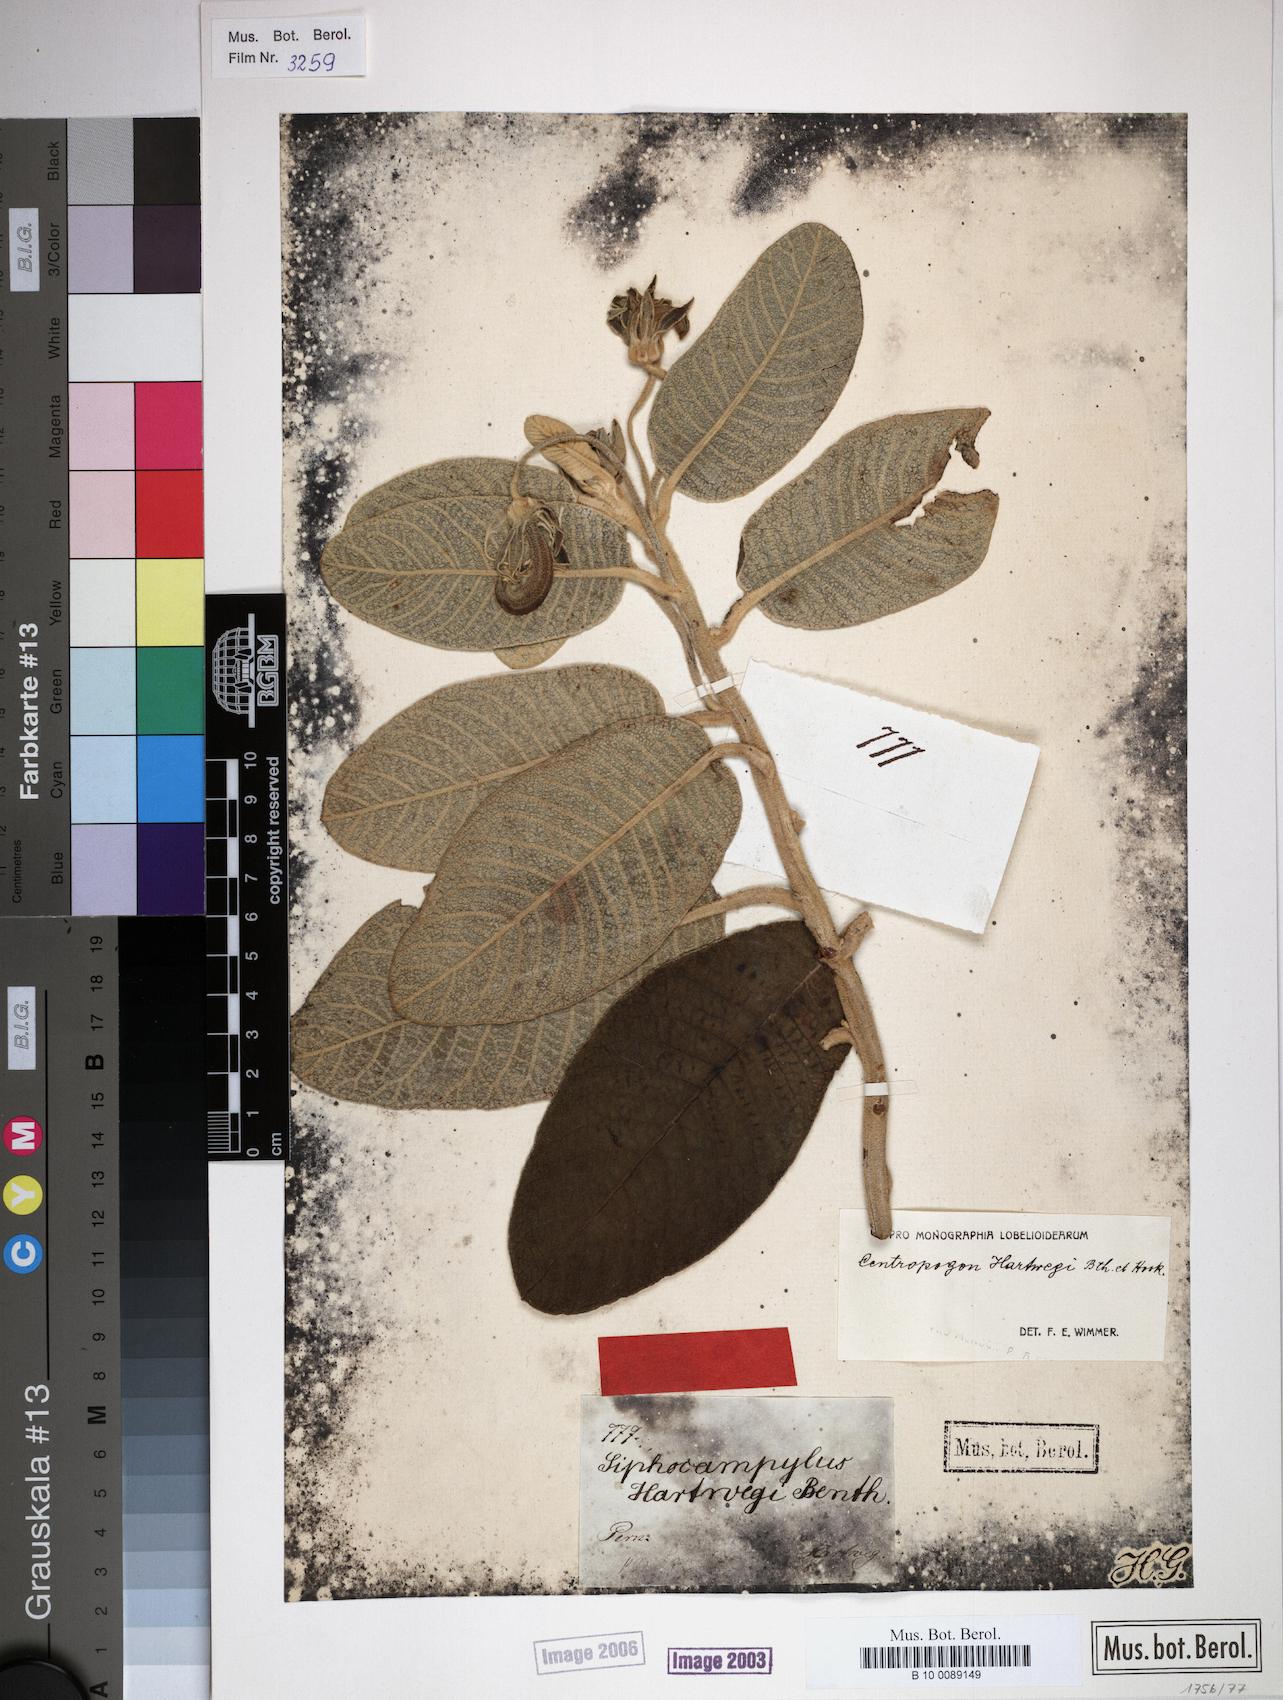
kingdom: Plantae
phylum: Tracheophyta
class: Magnoliopsida
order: Asterales
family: Campanulaceae
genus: Centropogon
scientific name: Centropogon hartwegii
